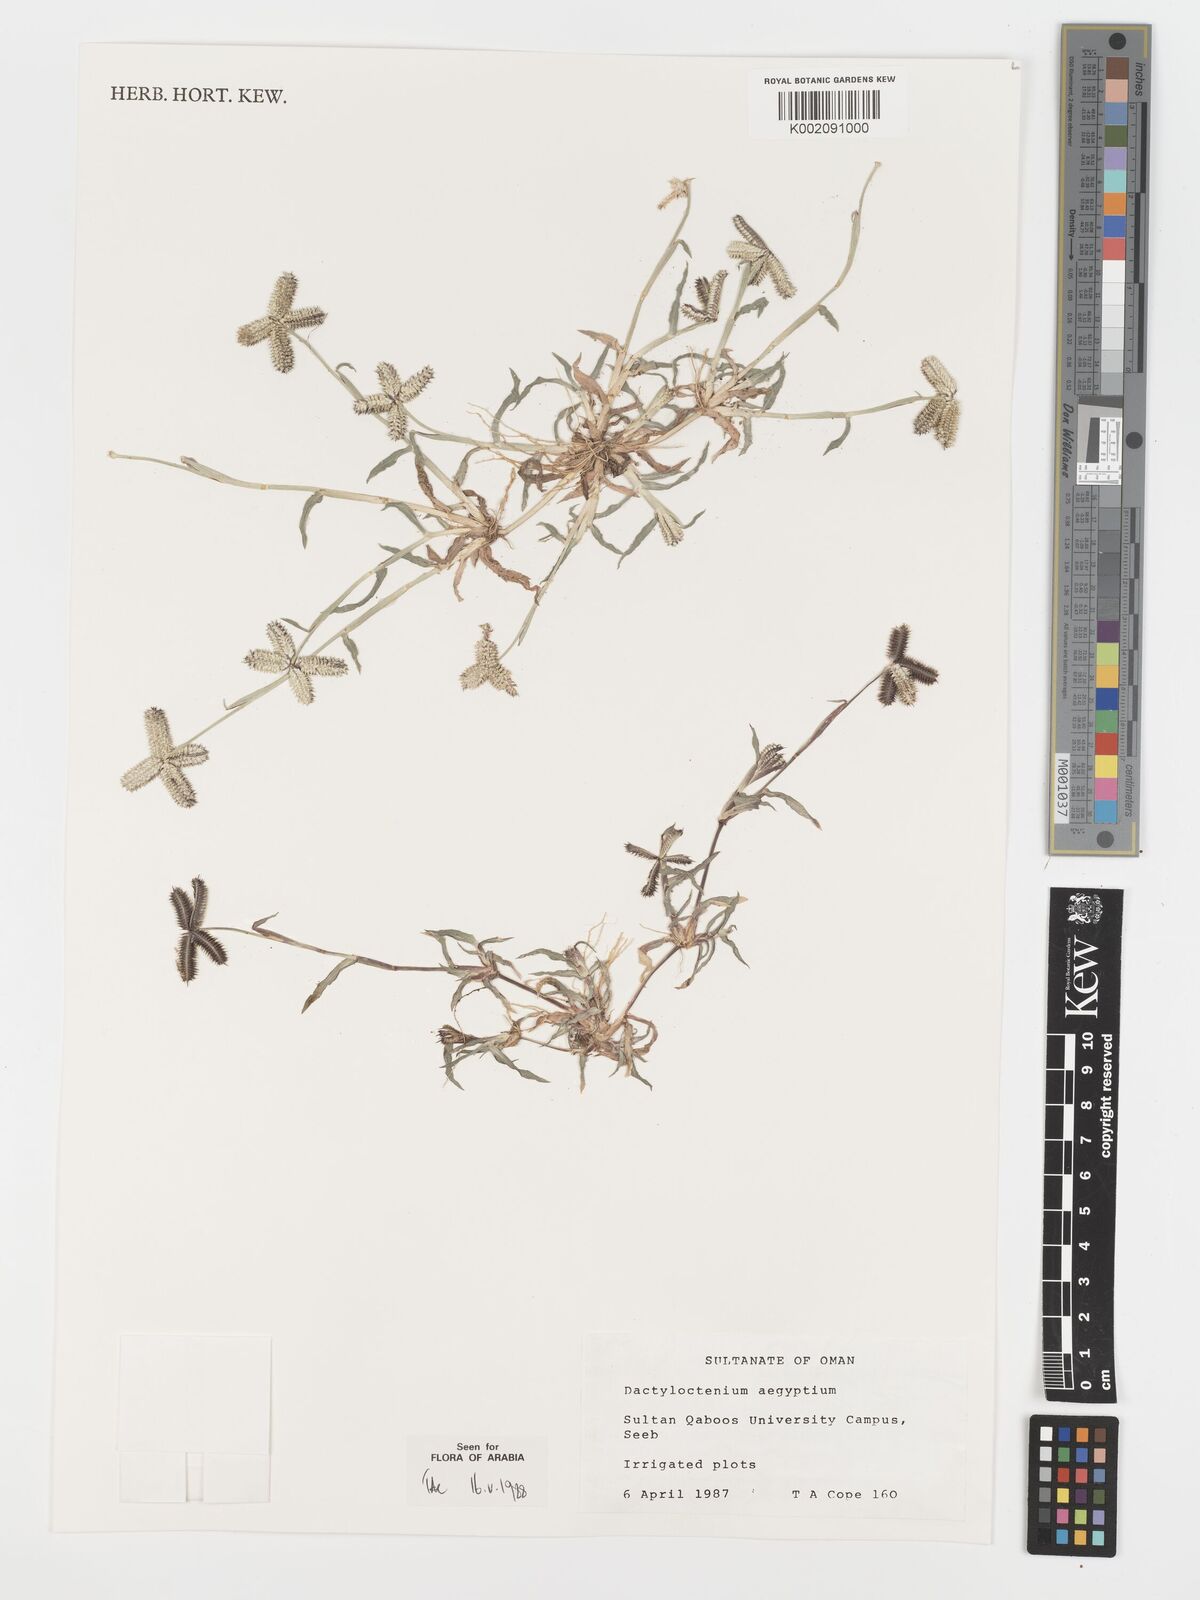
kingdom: Plantae
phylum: Tracheophyta
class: Liliopsida
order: Poales
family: Poaceae
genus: Dactyloctenium
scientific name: Dactyloctenium aegyptium
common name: Egyptian grass
